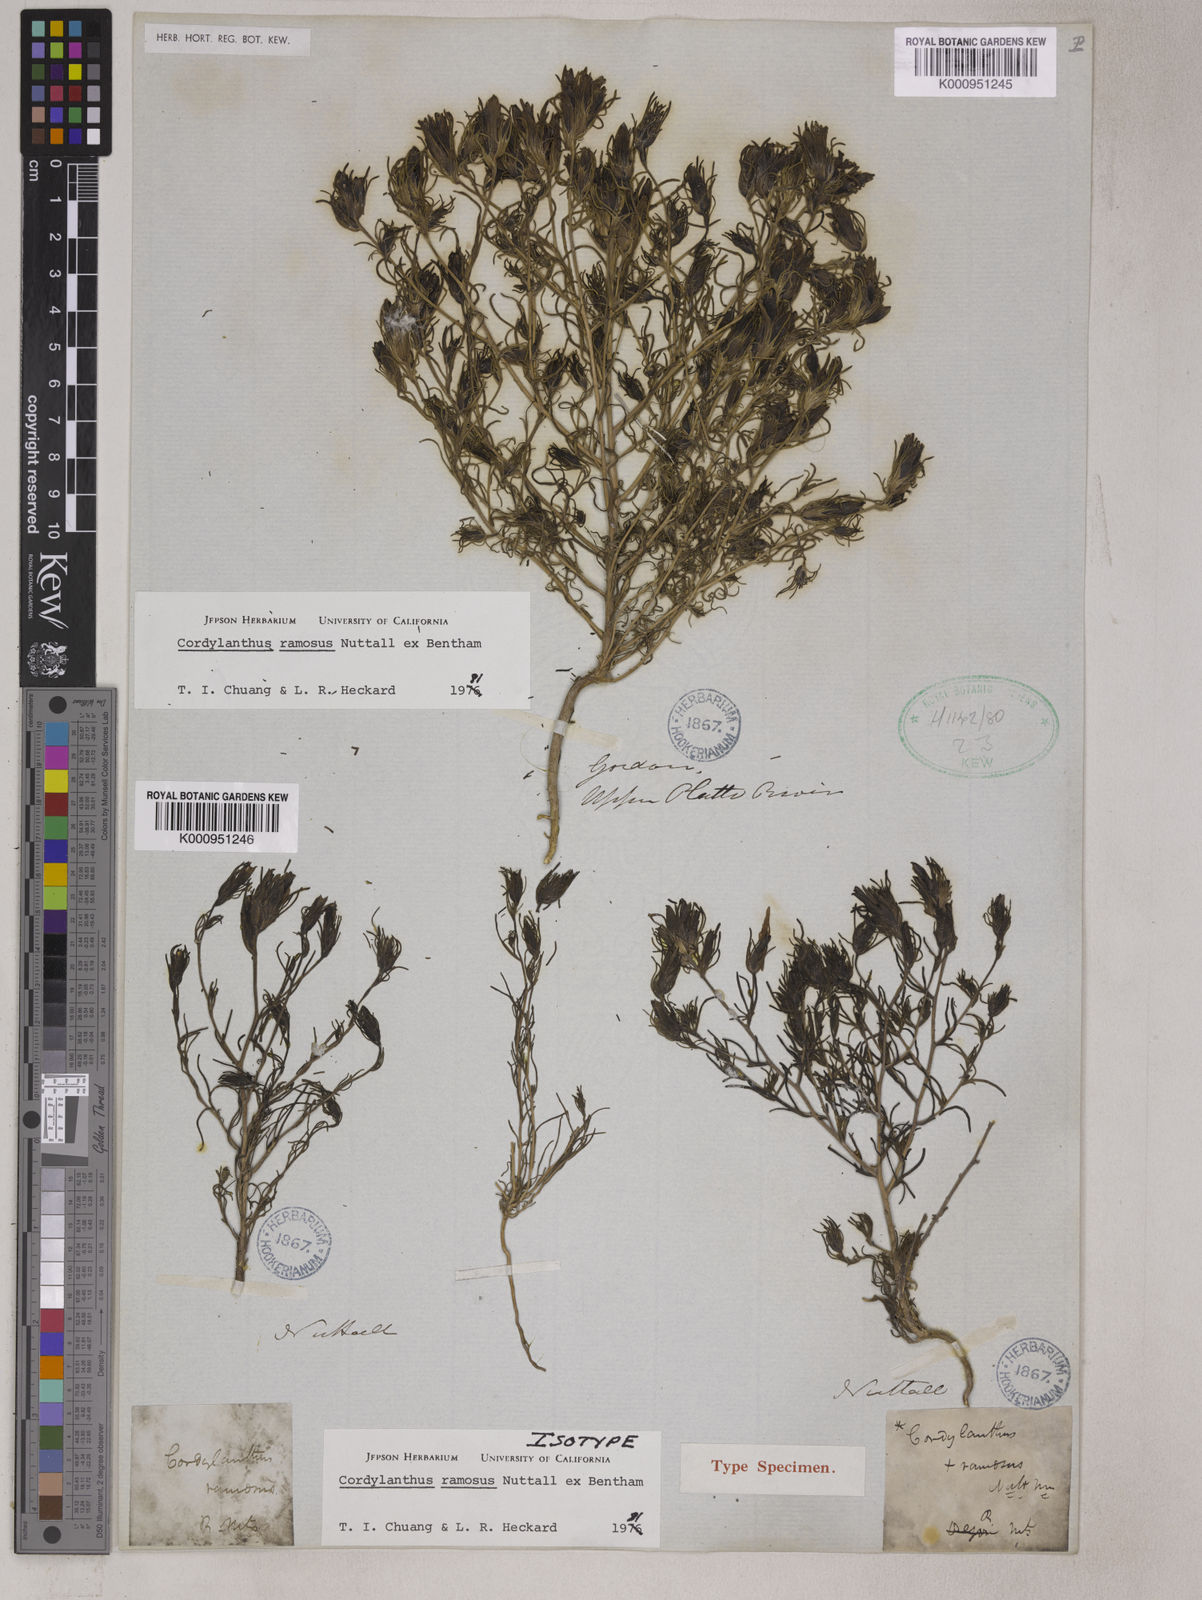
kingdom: Plantae
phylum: Tracheophyta
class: Magnoliopsida
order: Lamiales
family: Orobanchaceae
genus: Cordylanthus
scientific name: Cordylanthus ramosus
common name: Much-branched bird's-beak
